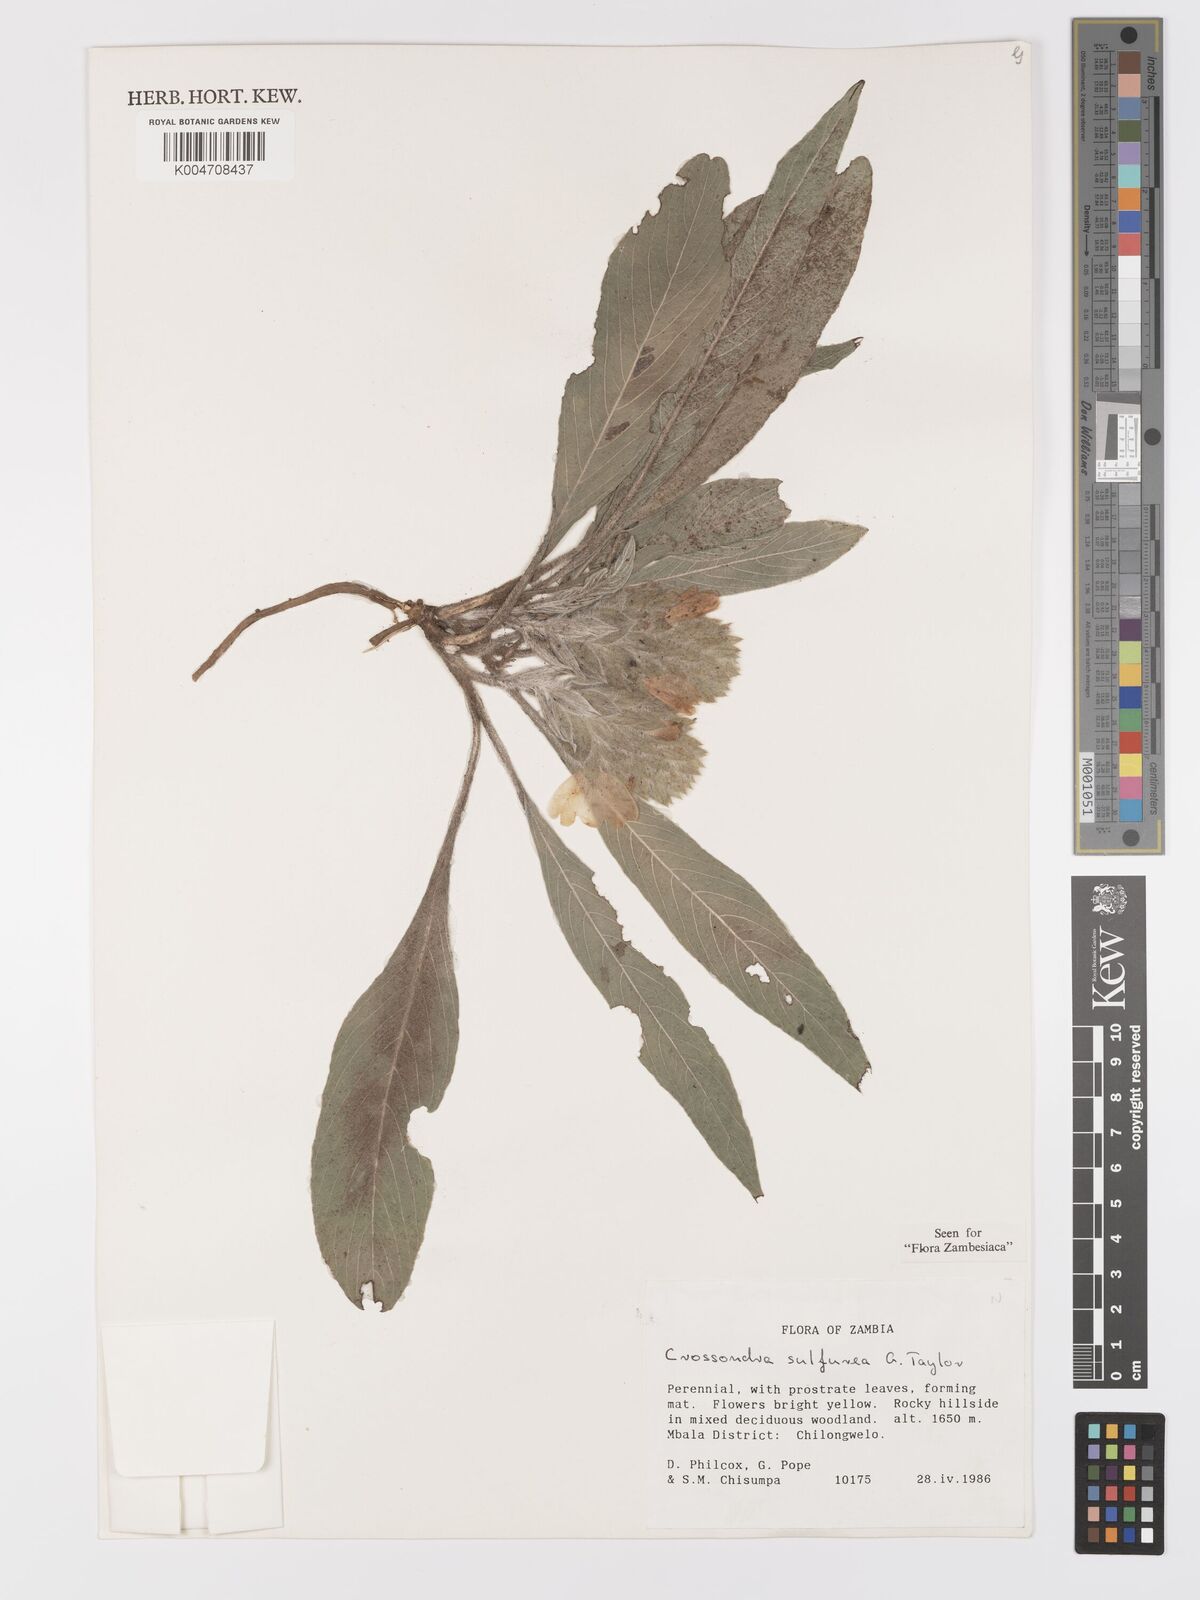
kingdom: Plantae
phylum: Tracheophyta
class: Magnoliopsida
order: Lamiales
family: Acanthaceae
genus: Crossandra
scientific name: Crossandra sulphurea
